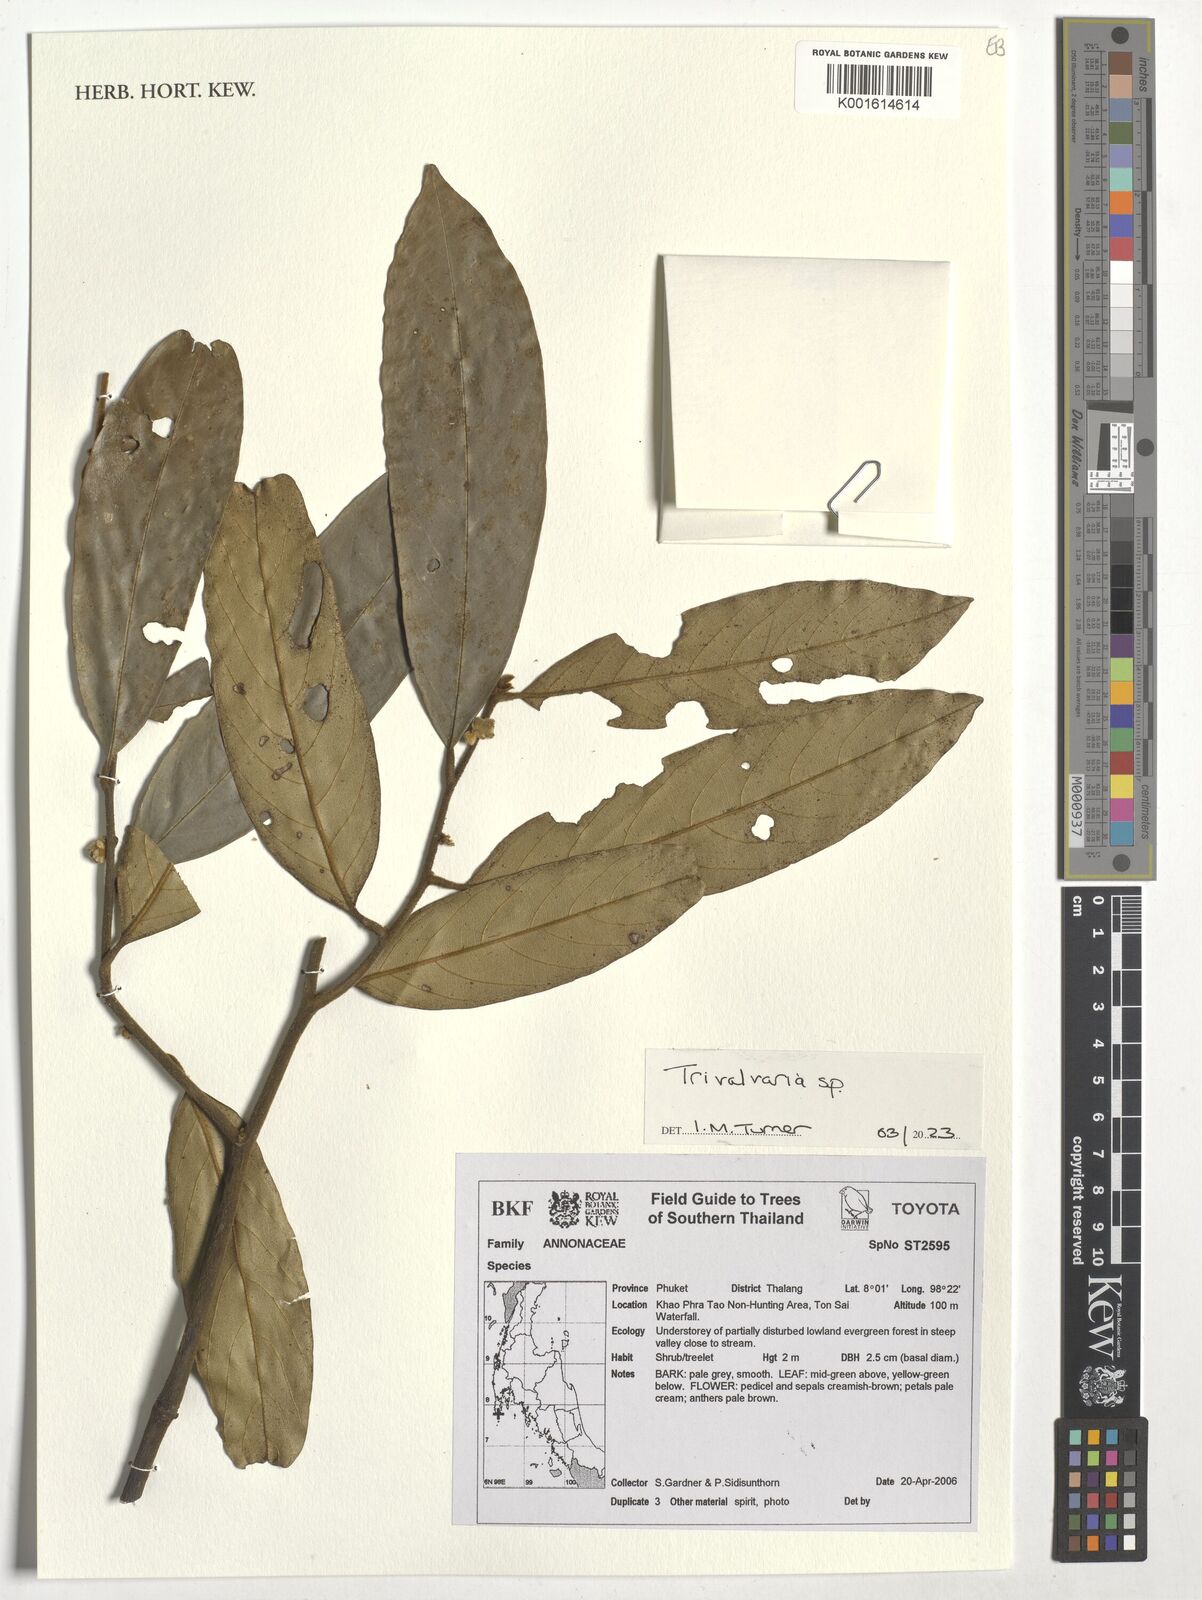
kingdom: Plantae
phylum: Tracheophyta
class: Magnoliopsida
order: Magnoliales
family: Annonaceae
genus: Trivalvaria
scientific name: Trivalvaria
